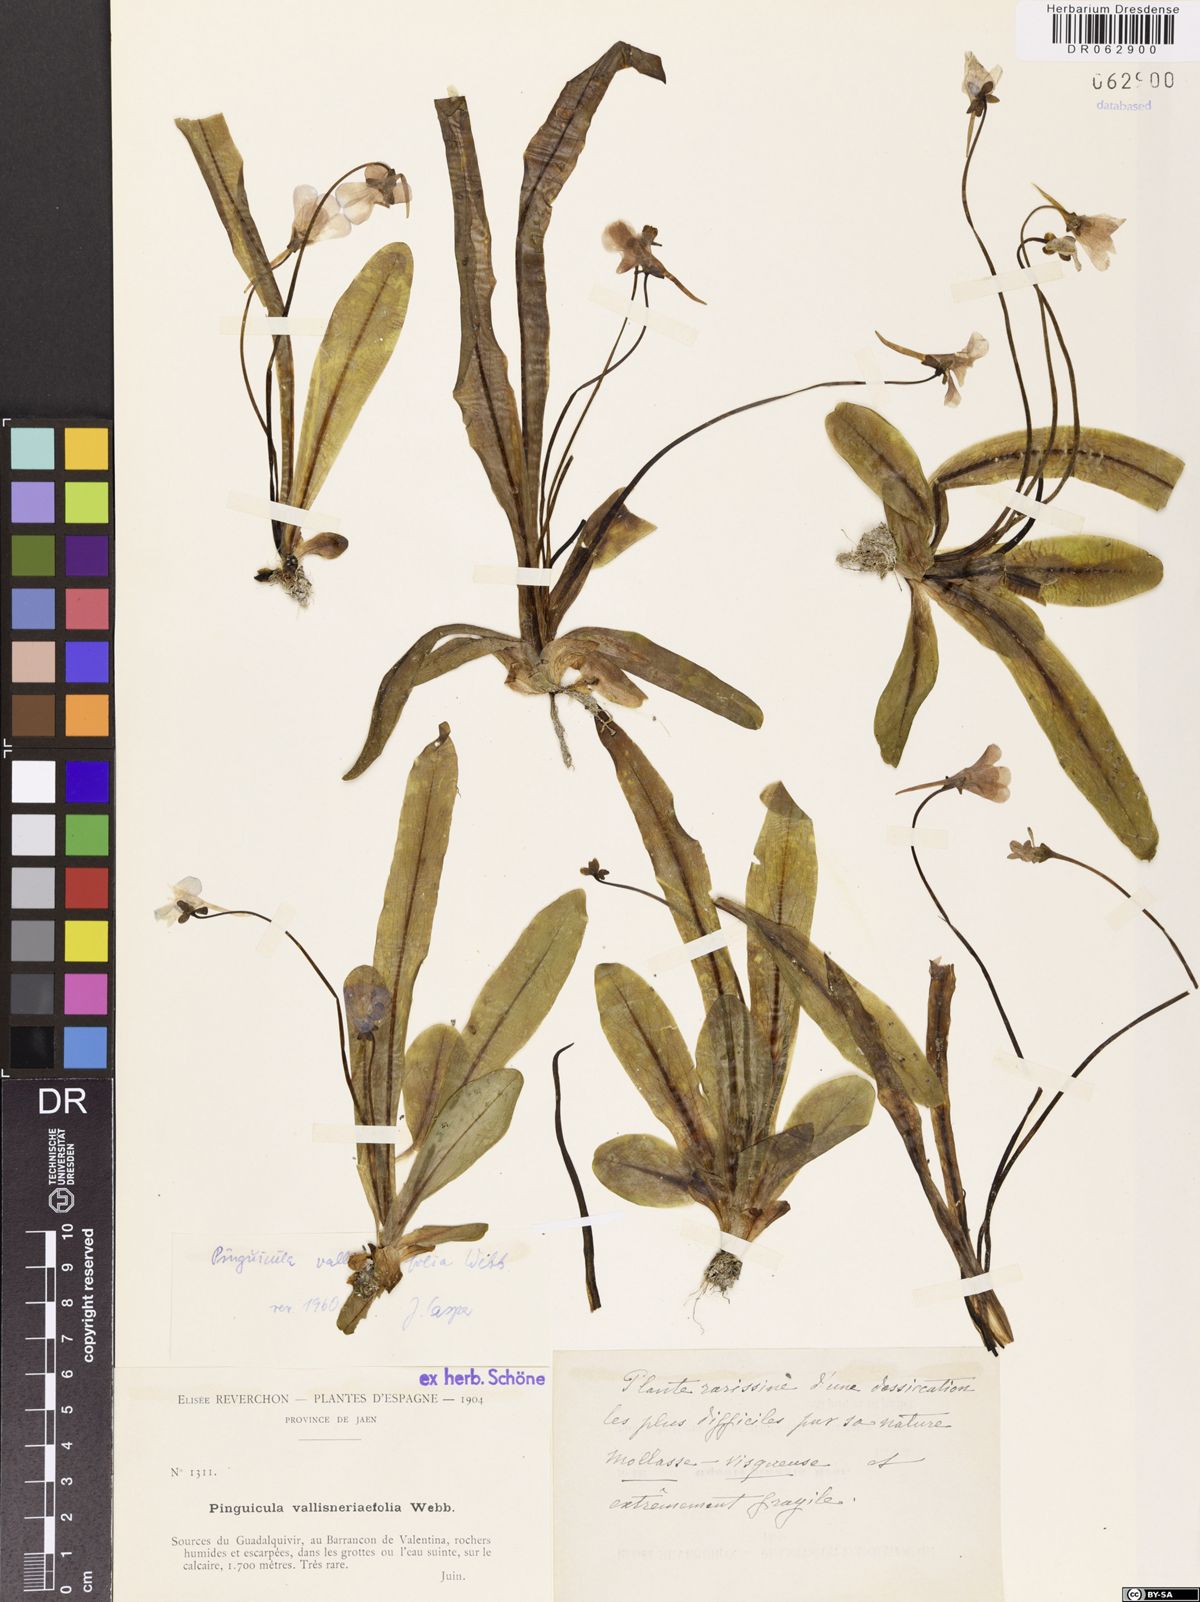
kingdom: Plantae
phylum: Tracheophyta
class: Magnoliopsida
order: Lamiales
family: Lentibulariaceae
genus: Pinguicula
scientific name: Pinguicula vallisneriifolia
